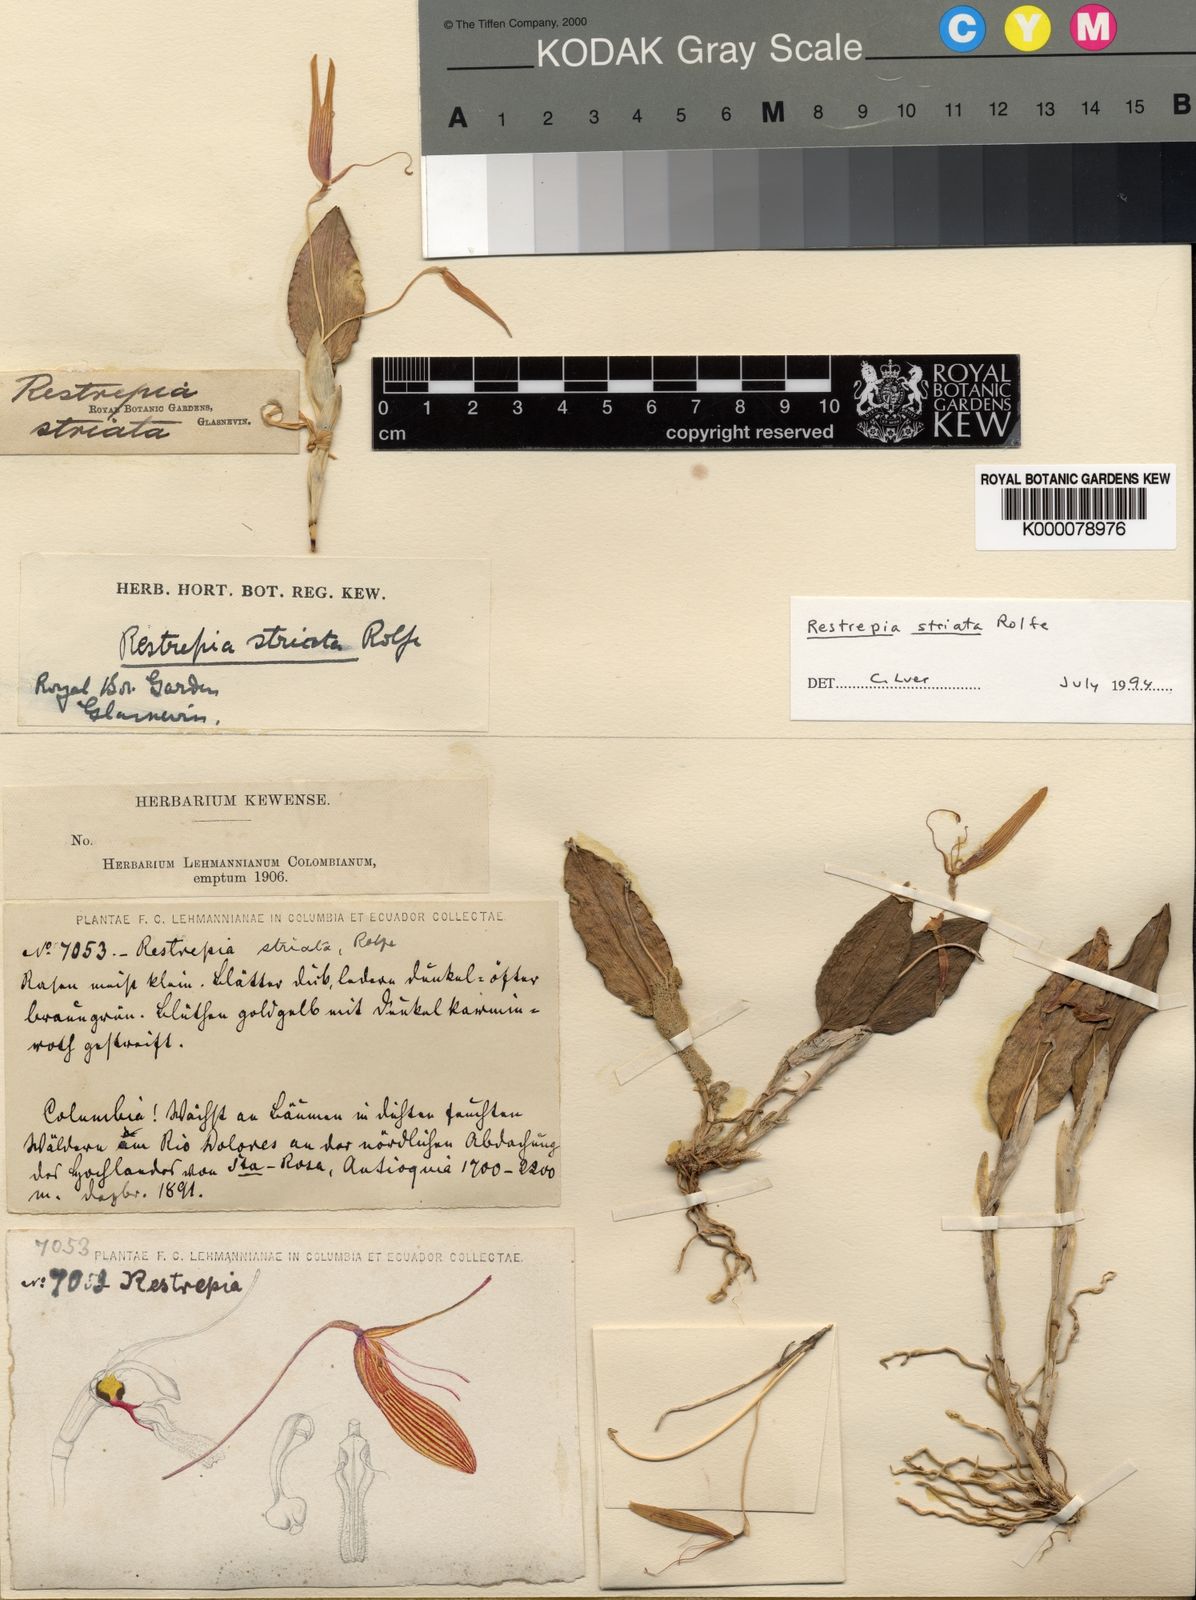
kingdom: Plantae
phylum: Tracheophyta
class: Liliopsida
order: Asparagales
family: Orchidaceae
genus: Restrepia
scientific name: Restrepia brachypus
